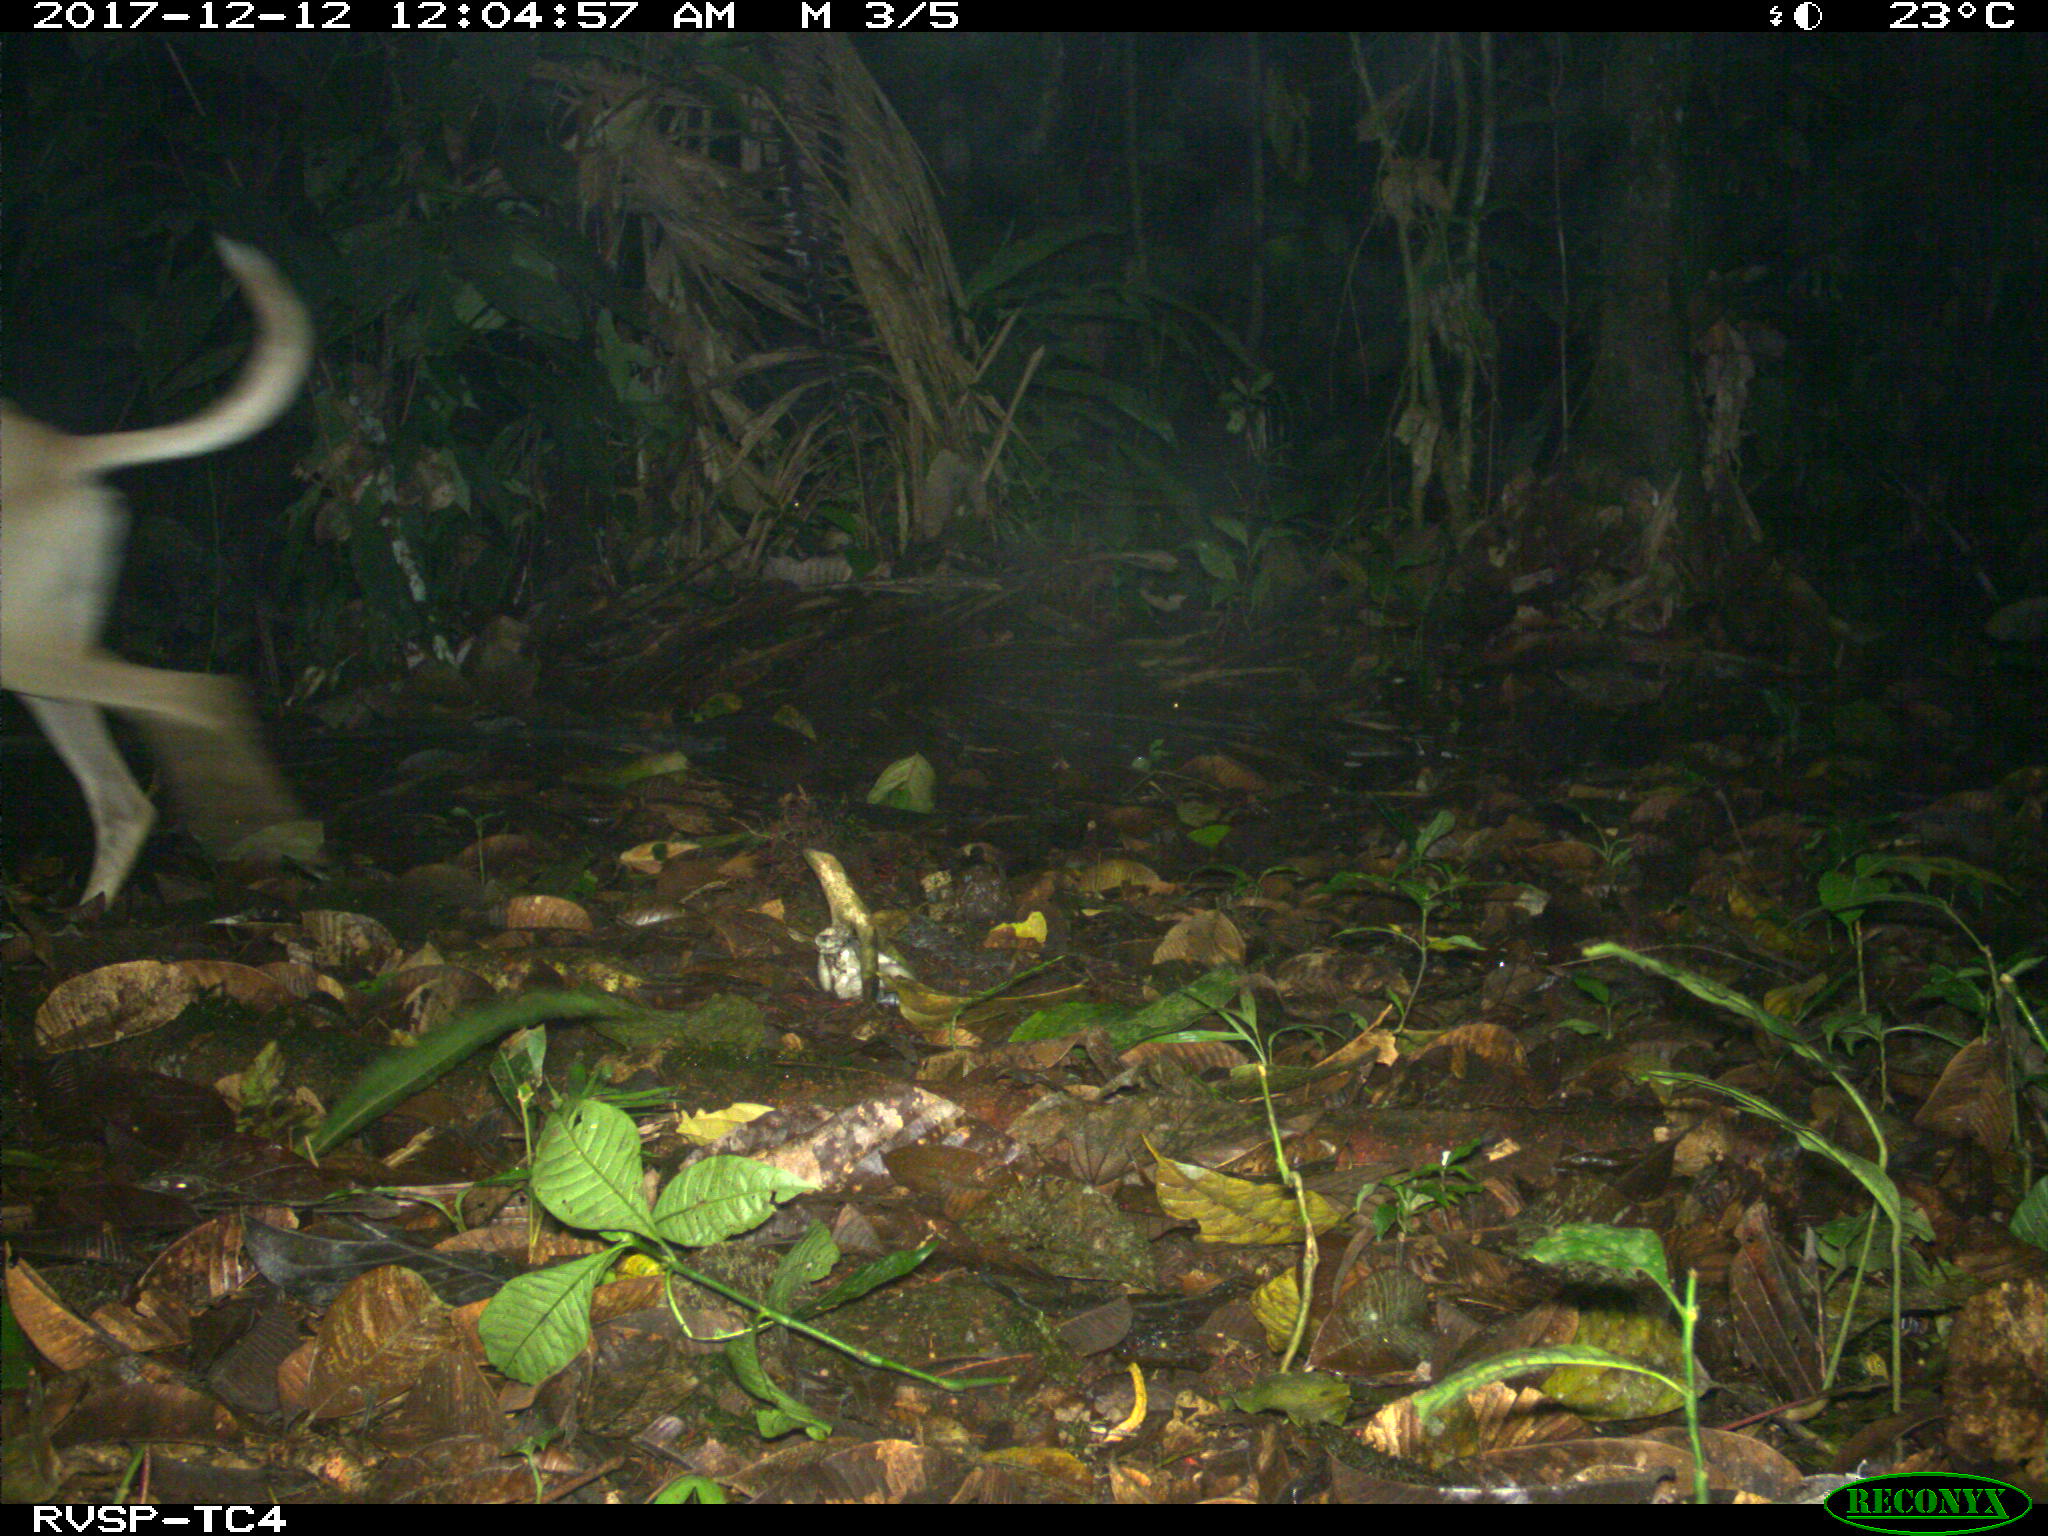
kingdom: Animalia
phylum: Chordata
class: Mammalia
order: Carnivora
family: Canidae
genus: Canis
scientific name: Canis lupus
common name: Gray wolf
